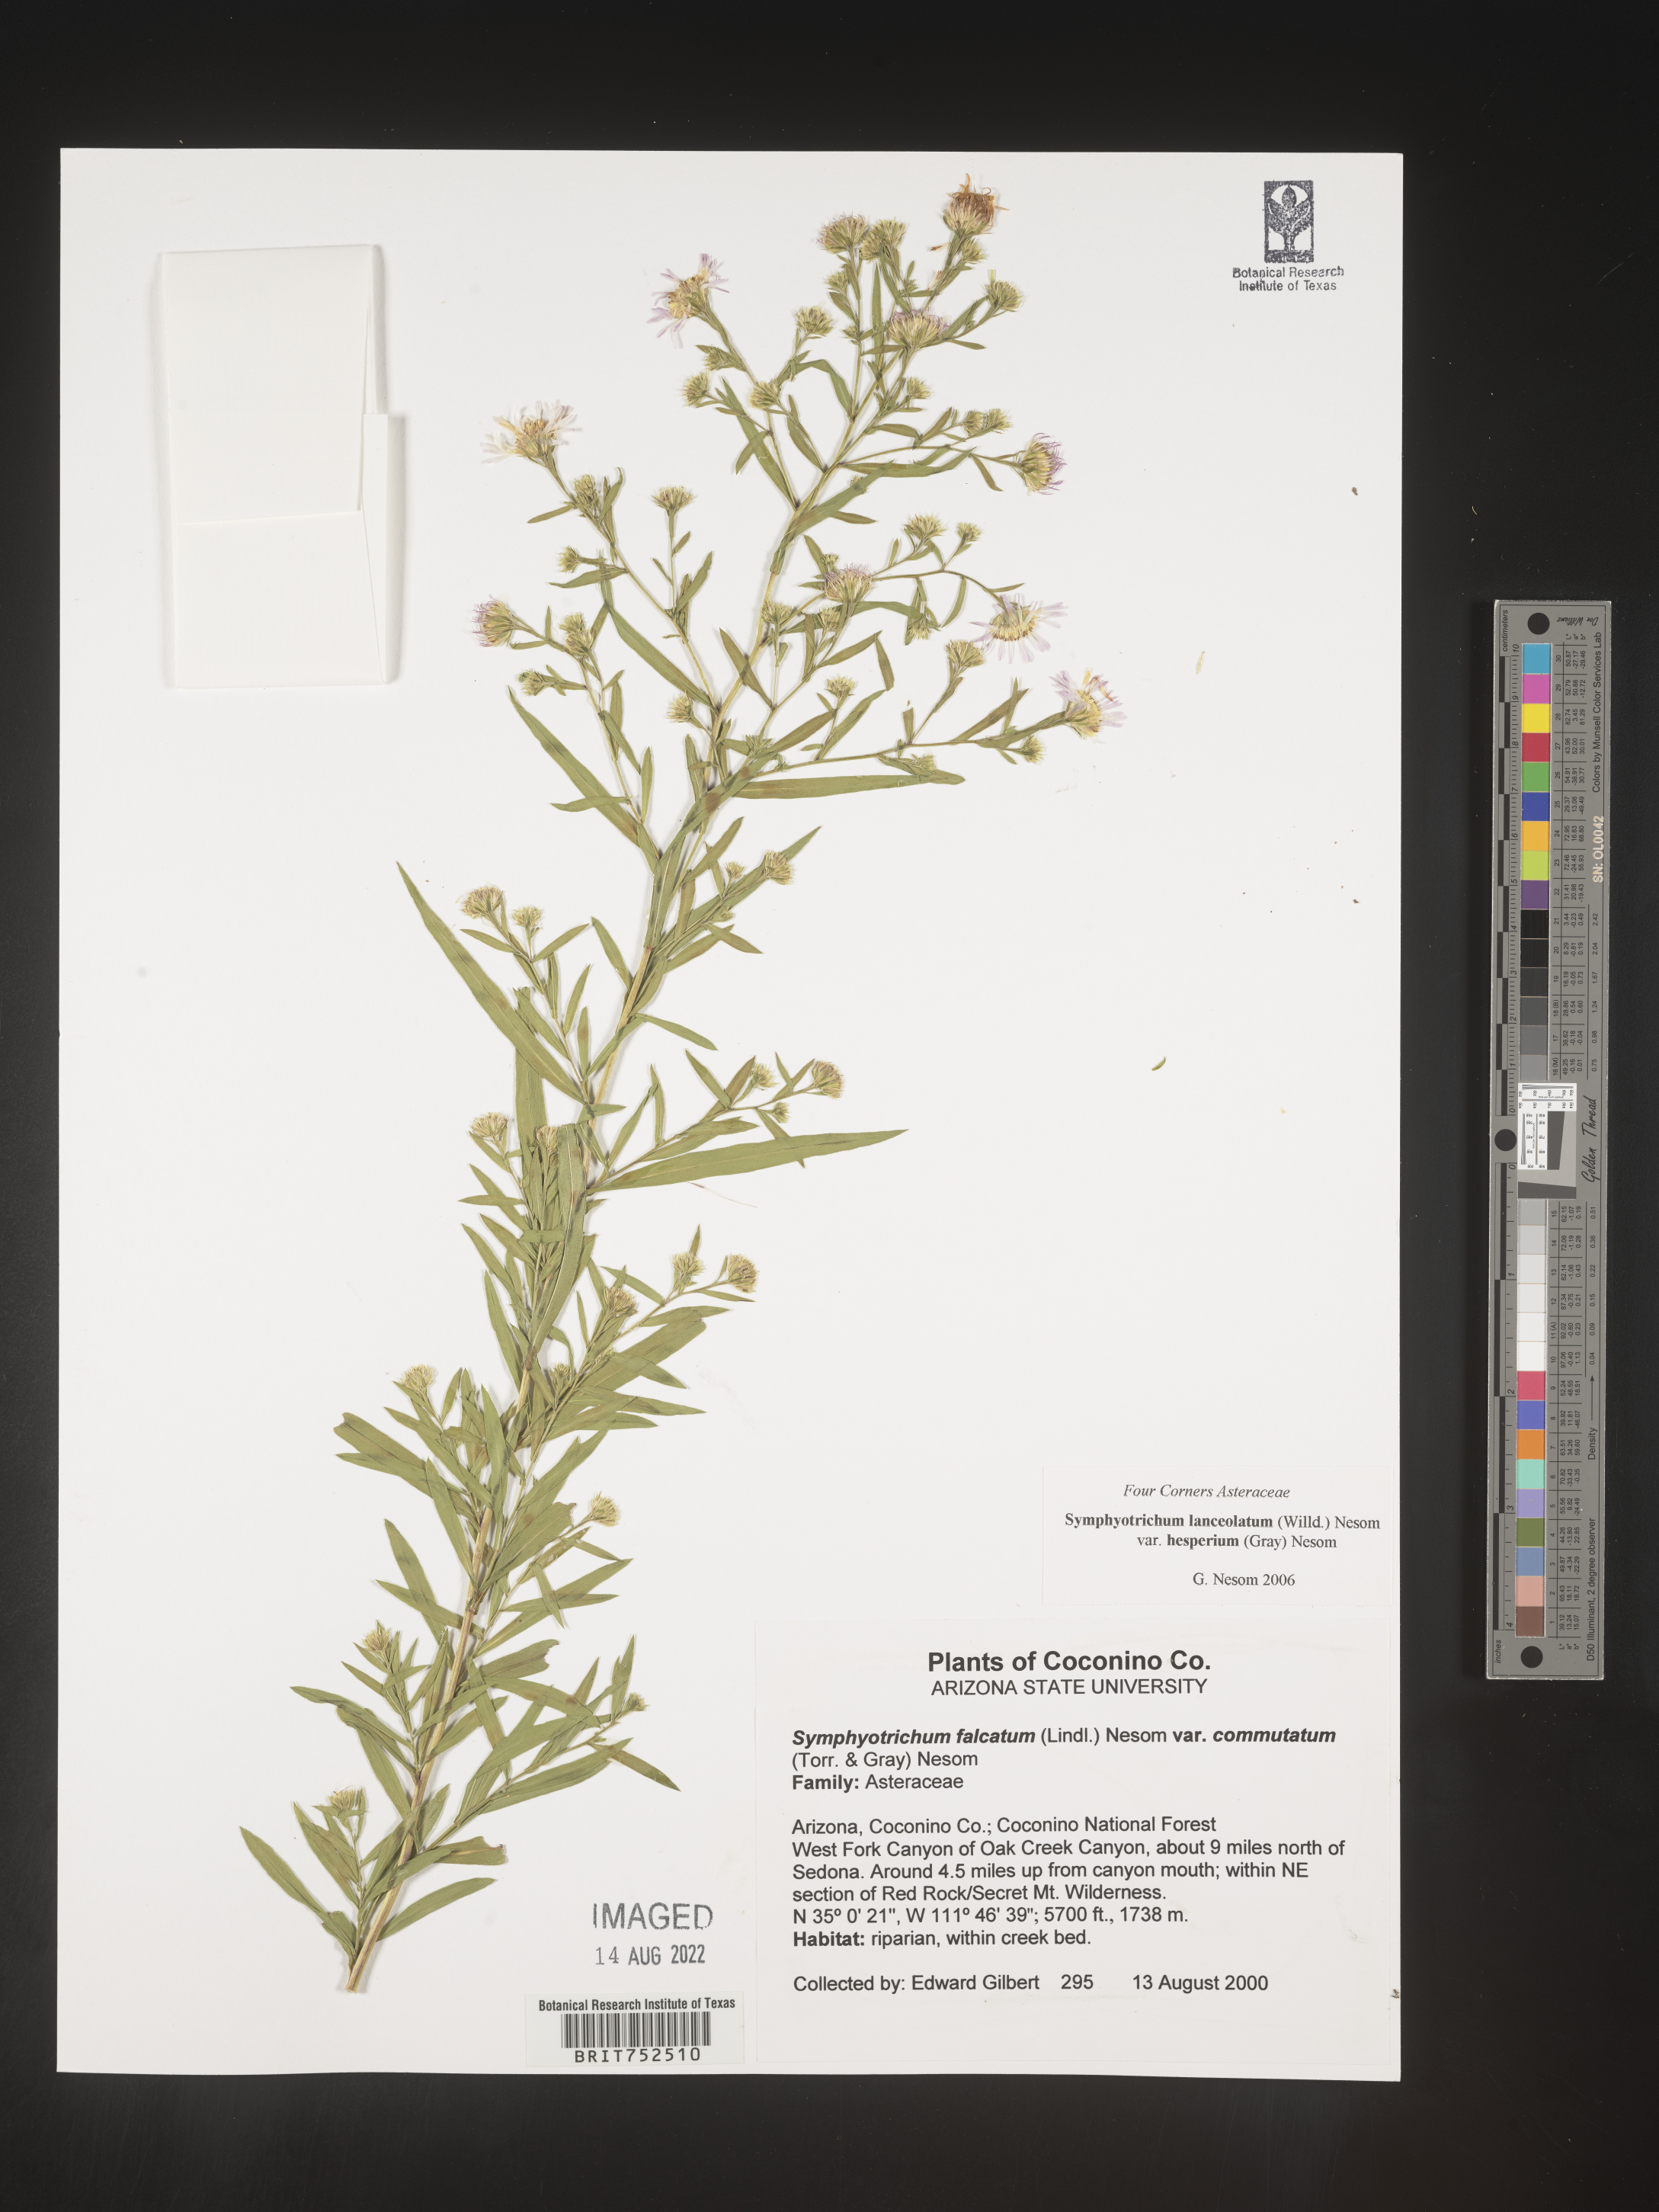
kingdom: Plantae
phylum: Tracheophyta
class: Magnoliopsida
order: Asterales
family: Asteraceae
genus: Symphyotrichum
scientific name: Symphyotrichum lanceolatum
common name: Panicled aster
